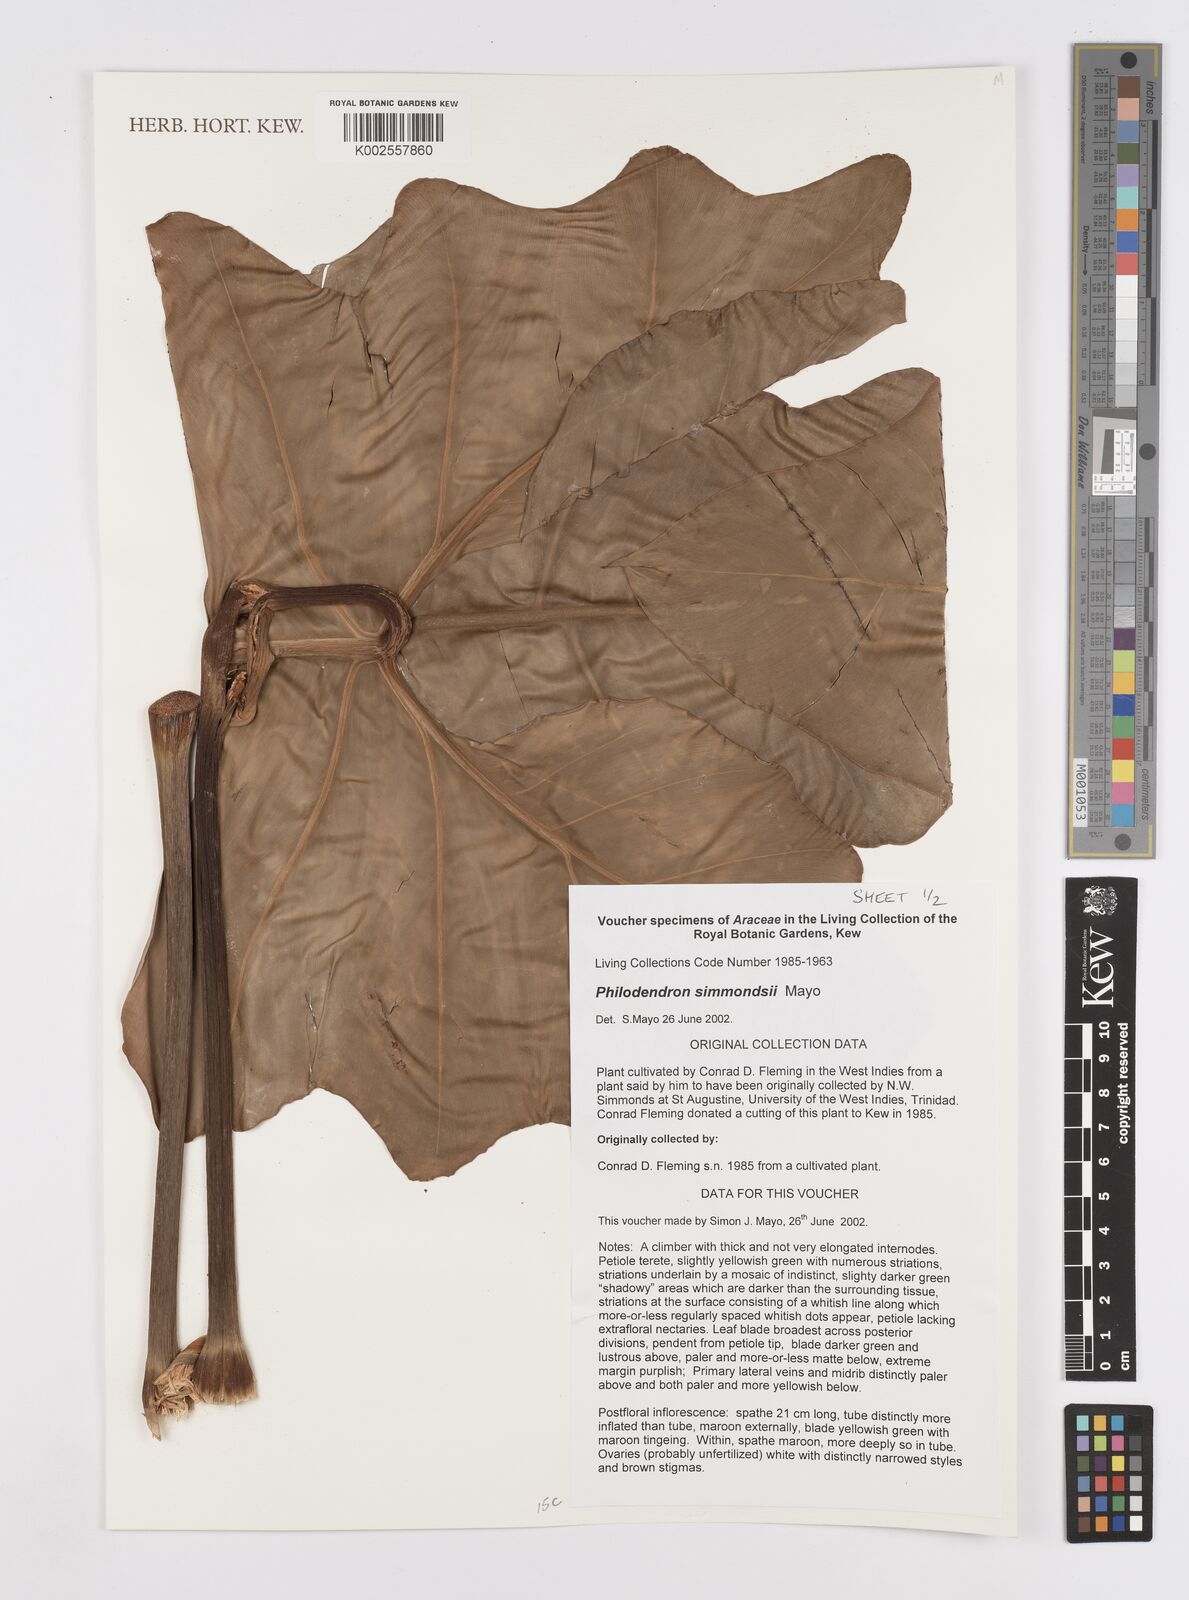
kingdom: Plantae
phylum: Tracheophyta
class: Liliopsida
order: Alismatales
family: Araceae
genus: Philodendron
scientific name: Philodendron simmondsii
